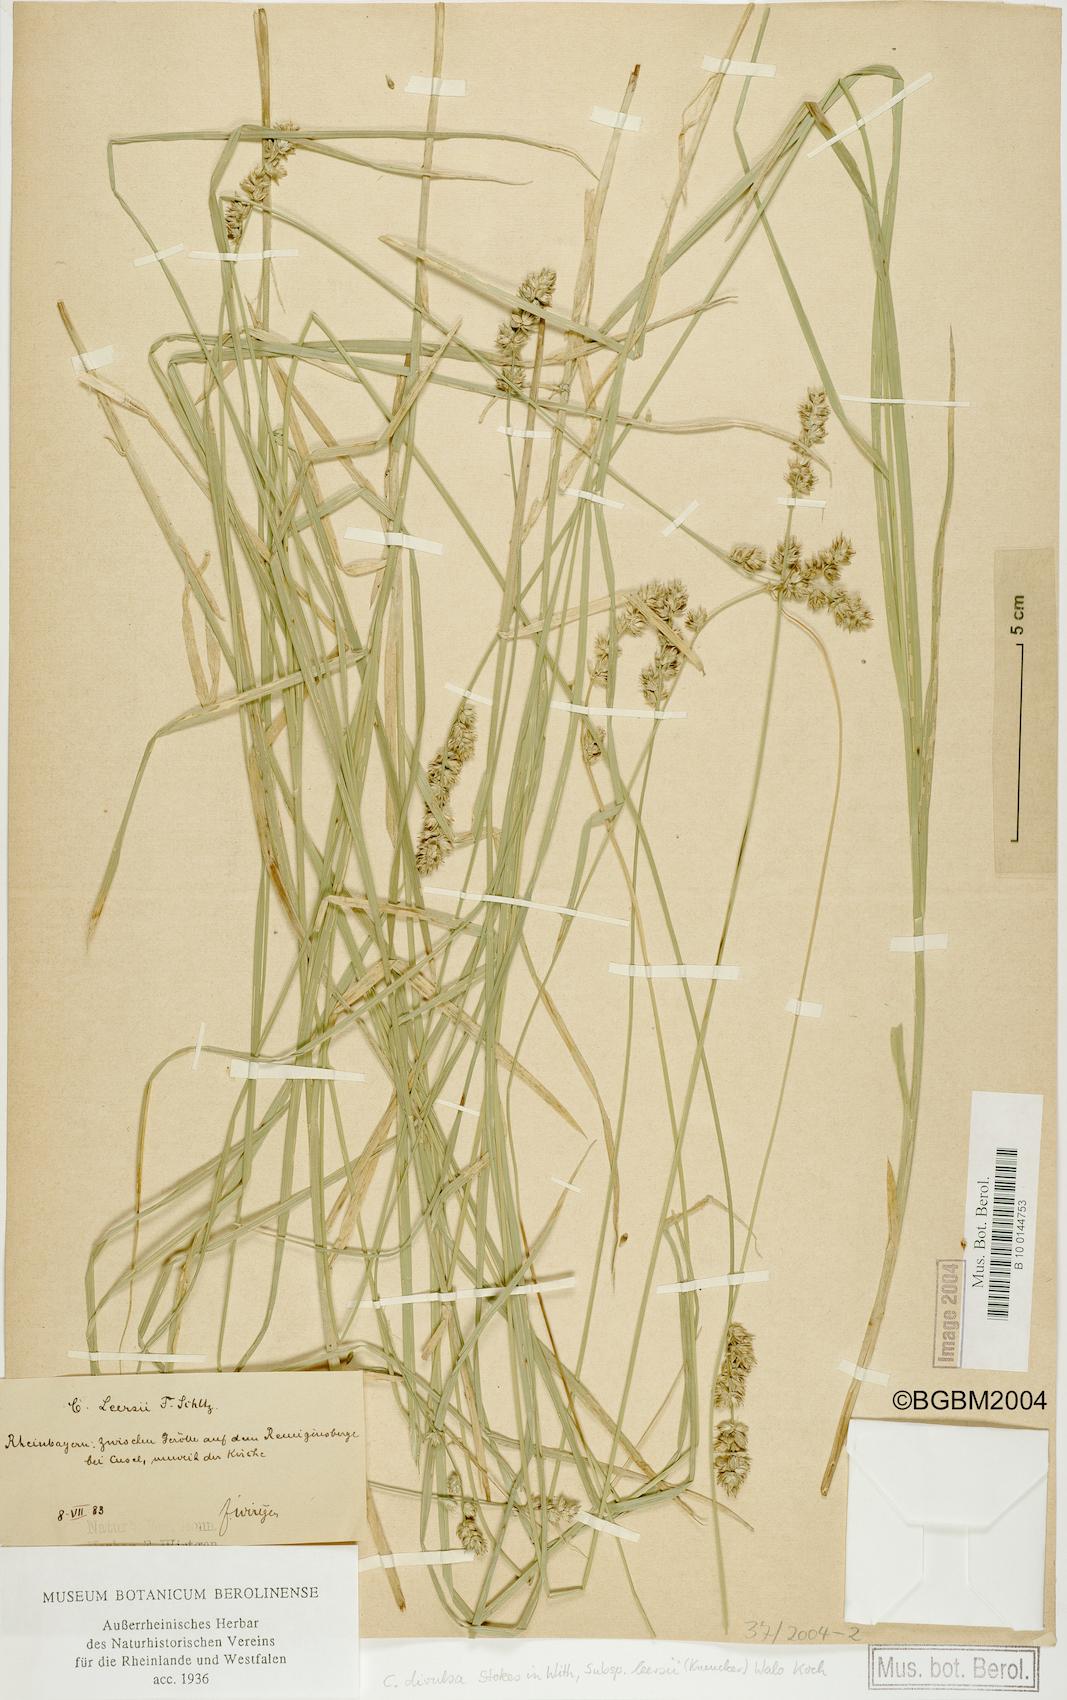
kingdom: Plantae
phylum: Tracheophyta
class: Liliopsida
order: Poales
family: Cyperaceae
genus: Carex
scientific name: Carex leersii
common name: Leers' sedge
